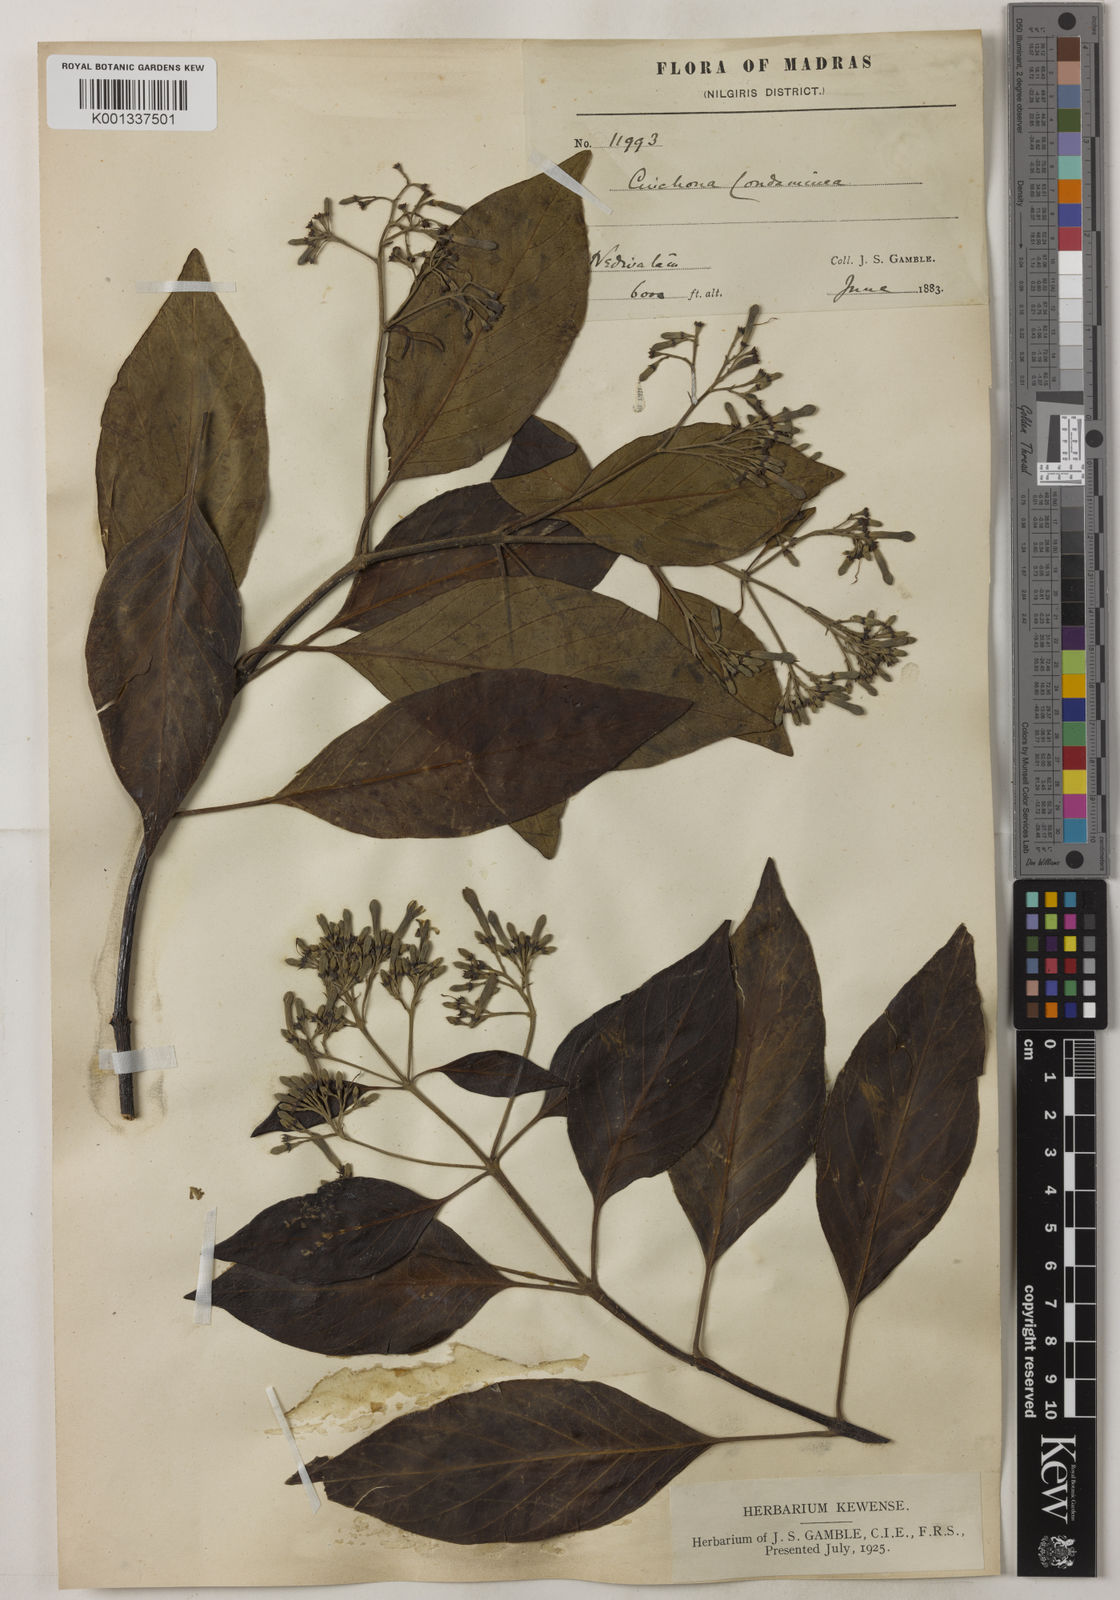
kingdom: Plantae
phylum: Tracheophyta
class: Magnoliopsida
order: Gentianales
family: Rubiaceae
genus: Cinchona
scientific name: Cinchona officinalis
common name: Lojabark
